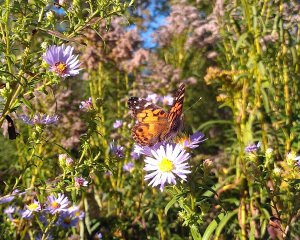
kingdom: Animalia
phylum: Arthropoda
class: Insecta
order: Lepidoptera
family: Nymphalidae
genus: Vanessa
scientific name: Vanessa virginiensis
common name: American Lady
